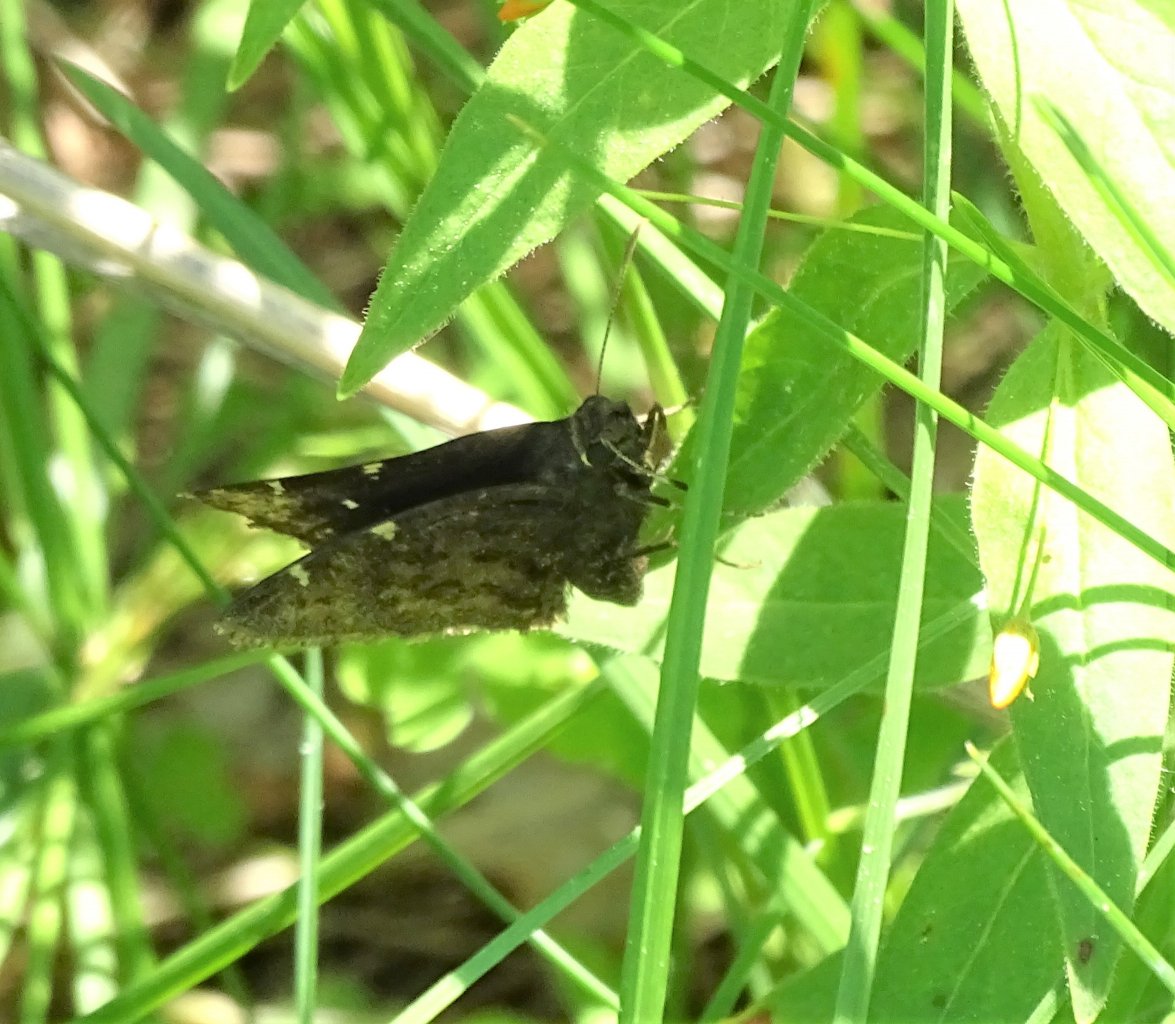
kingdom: Animalia
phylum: Arthropoda
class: Insecta
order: Lepidoptera
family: Hesperiidae
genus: Autochton
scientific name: Autochton
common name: Northern Cloudywing
